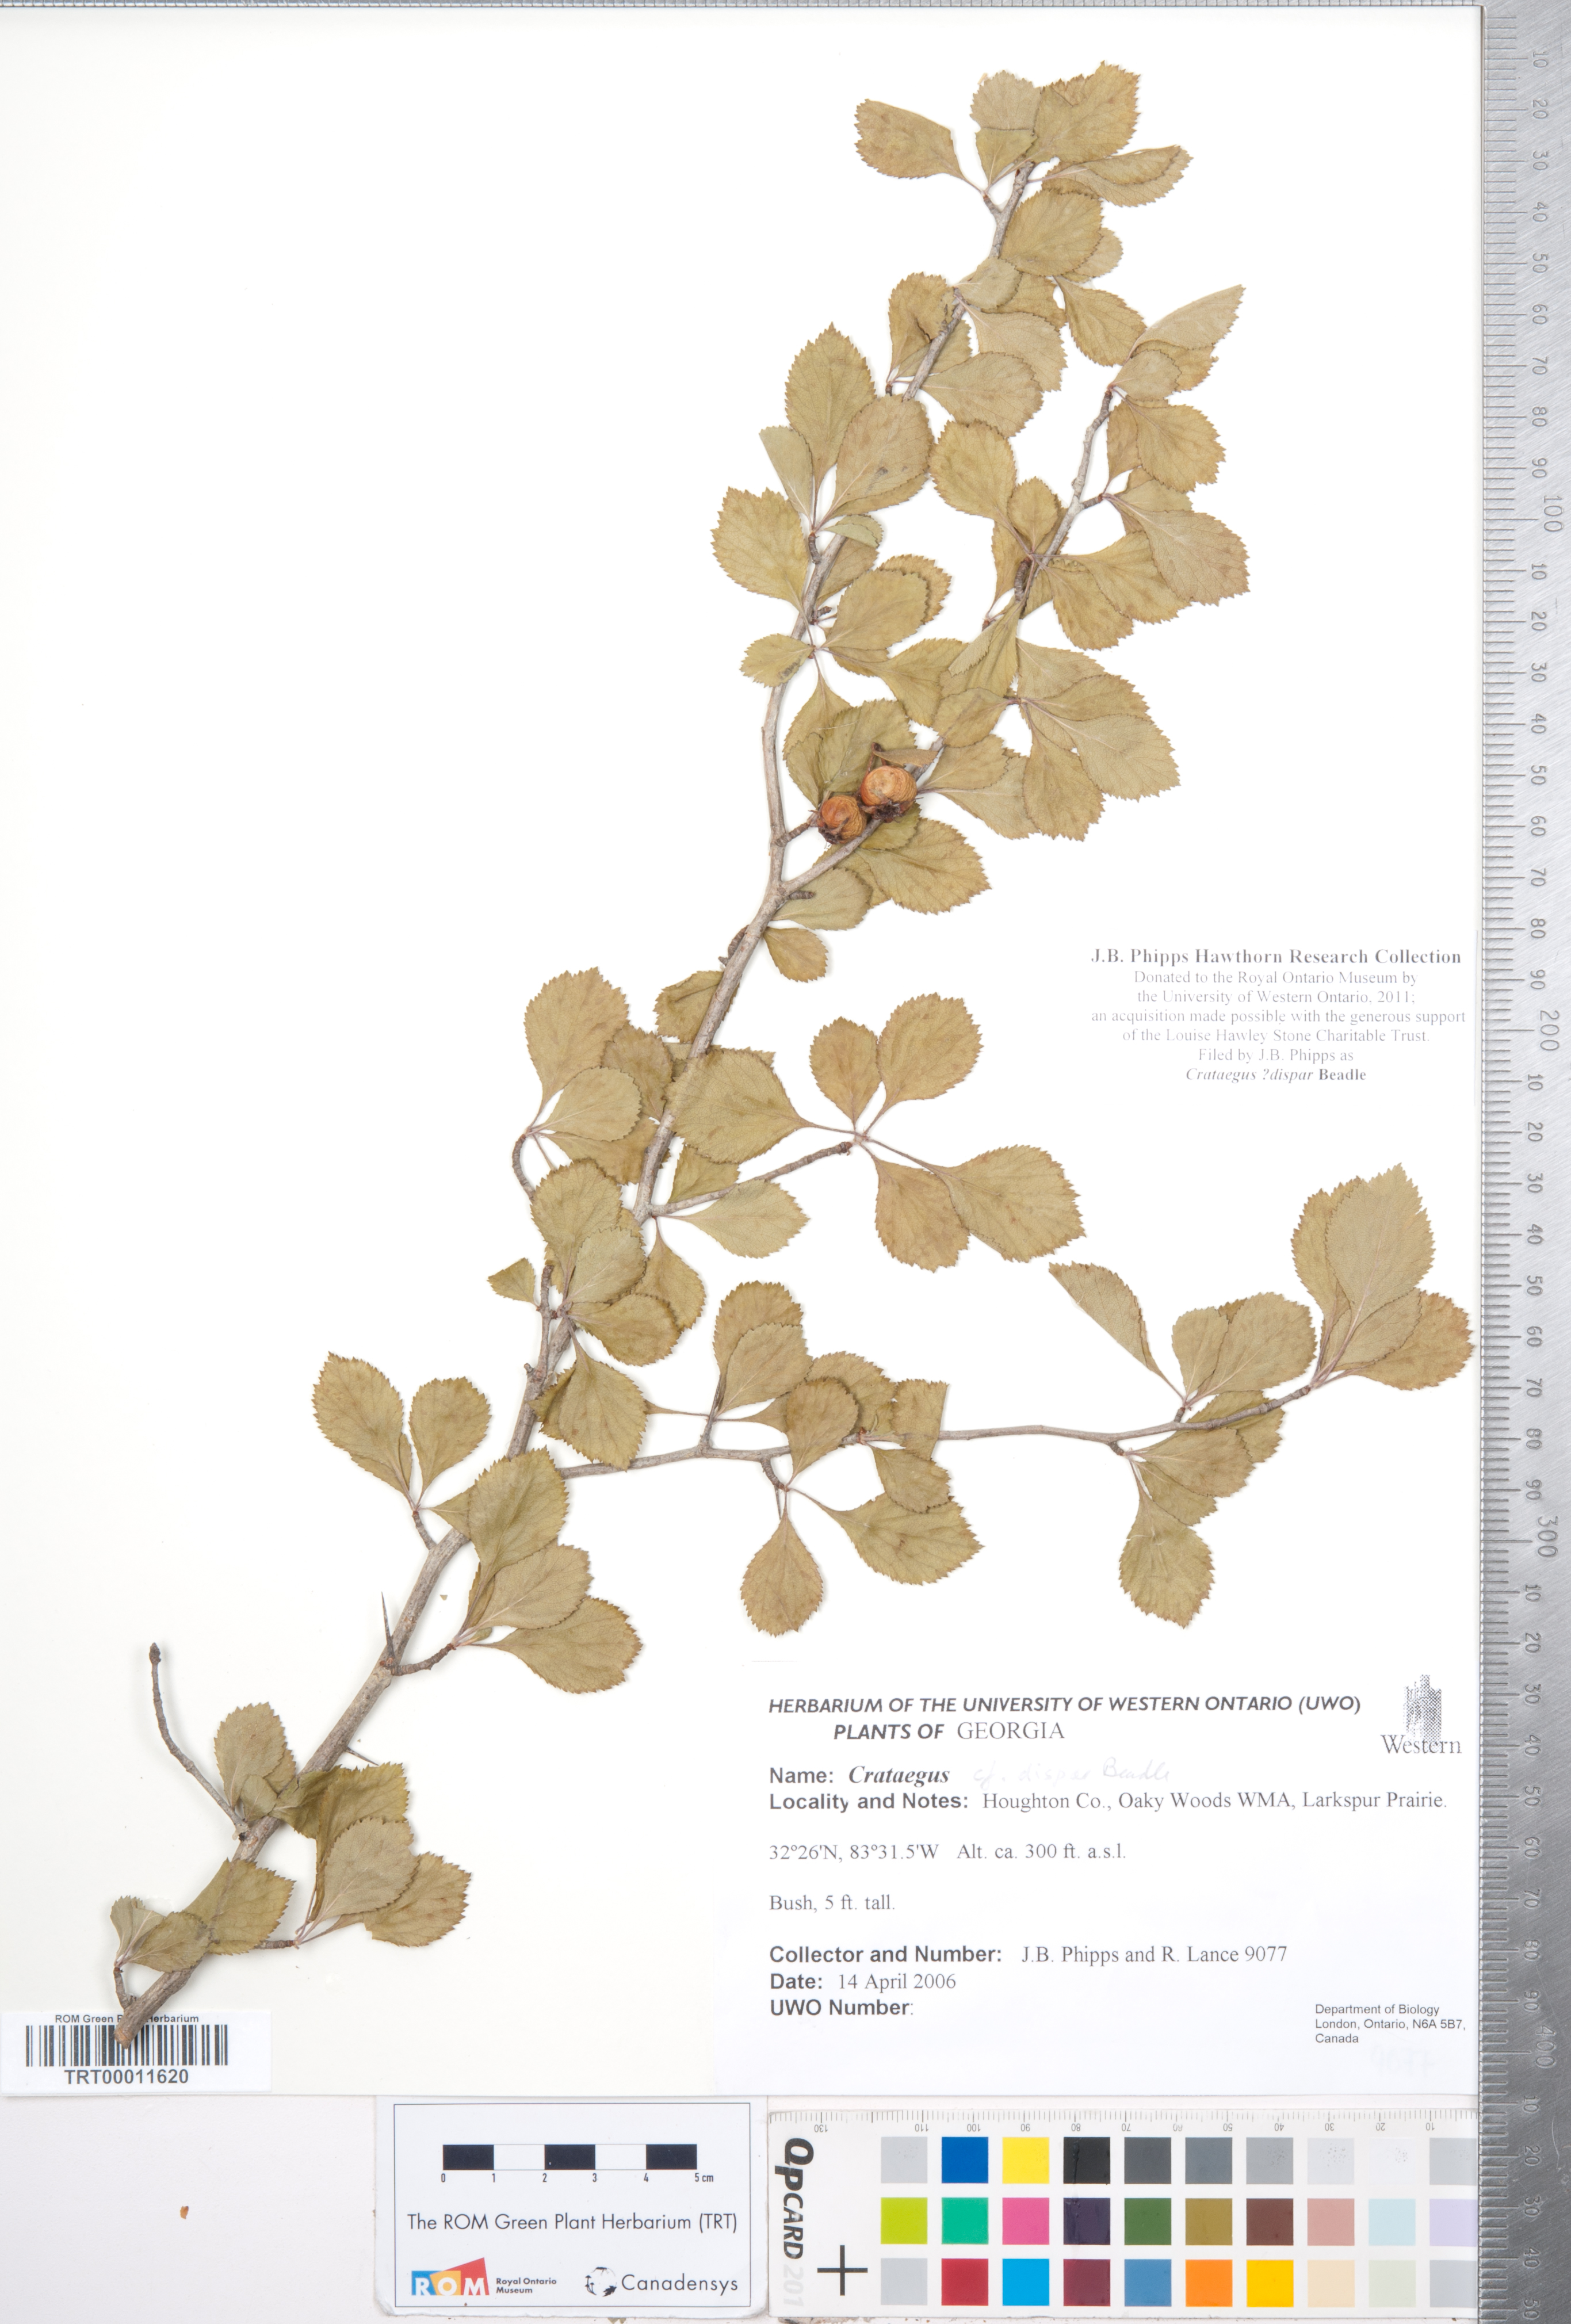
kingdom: Plantae
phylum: Tracheophyta
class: Magnoliopsida
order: Rosales
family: Rosaceae
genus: Crataegus
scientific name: Crataegus dispar
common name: Aiken hawthorn
